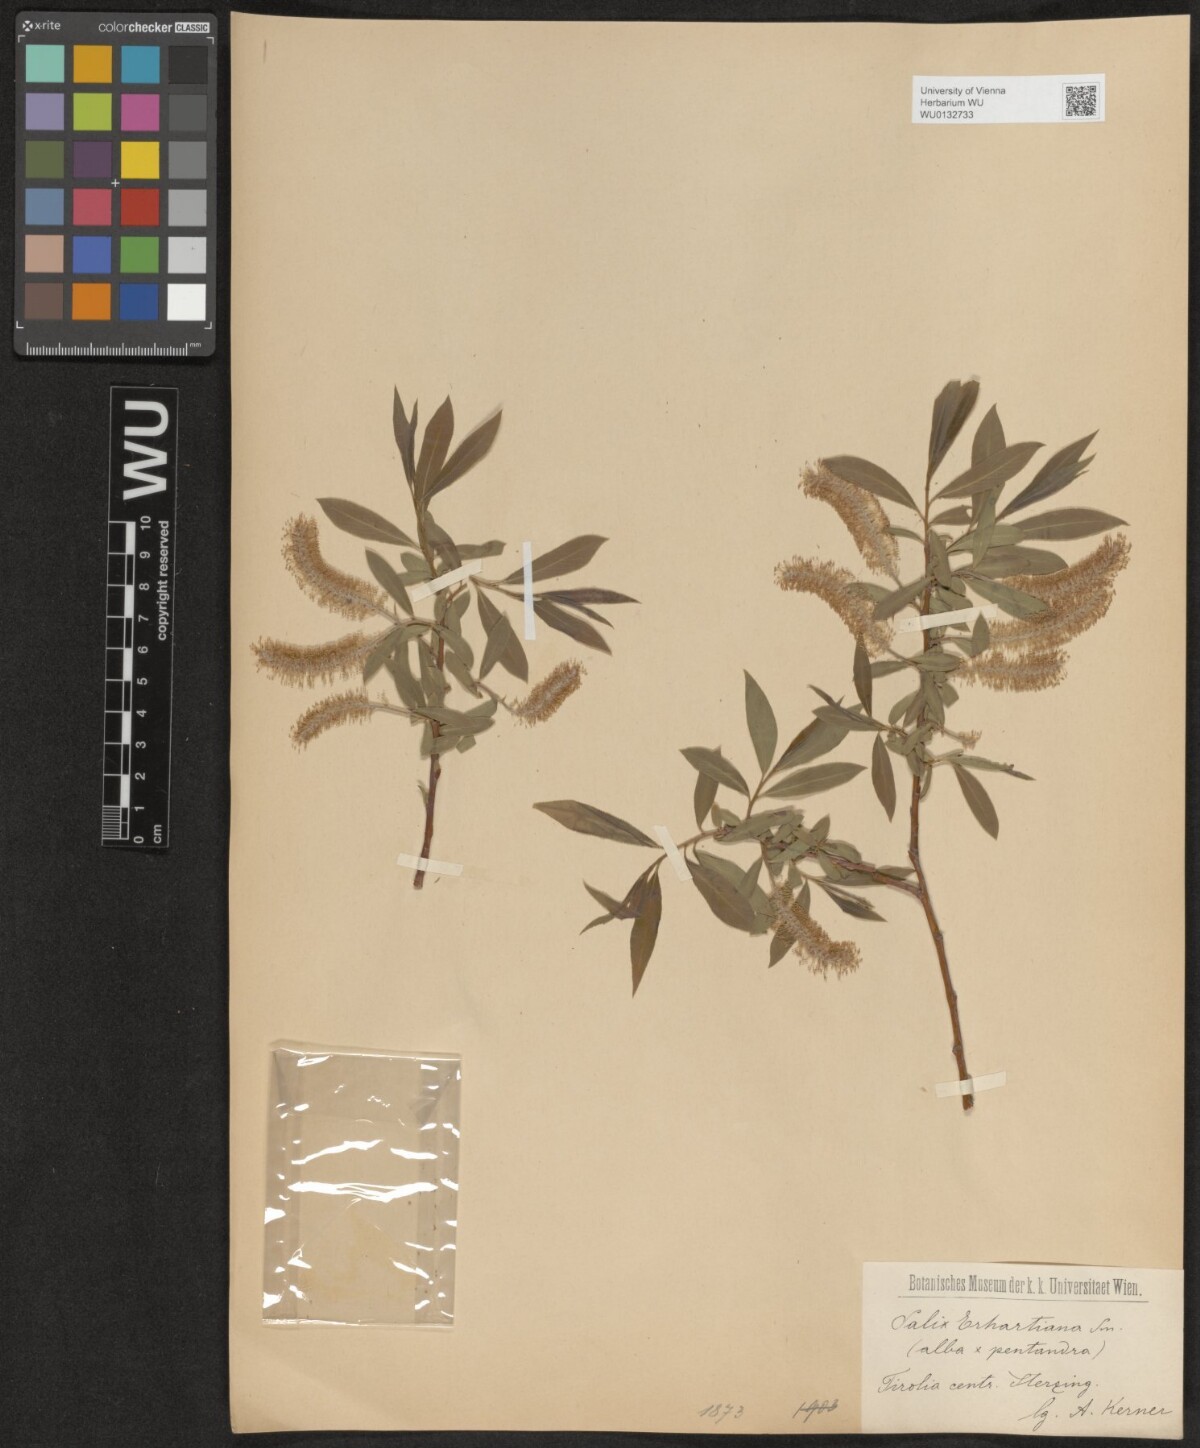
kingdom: Plantae
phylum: Tracheophyta
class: Magnoliopsida
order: Malpighiales
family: Salicaceae
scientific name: Salicaceae
